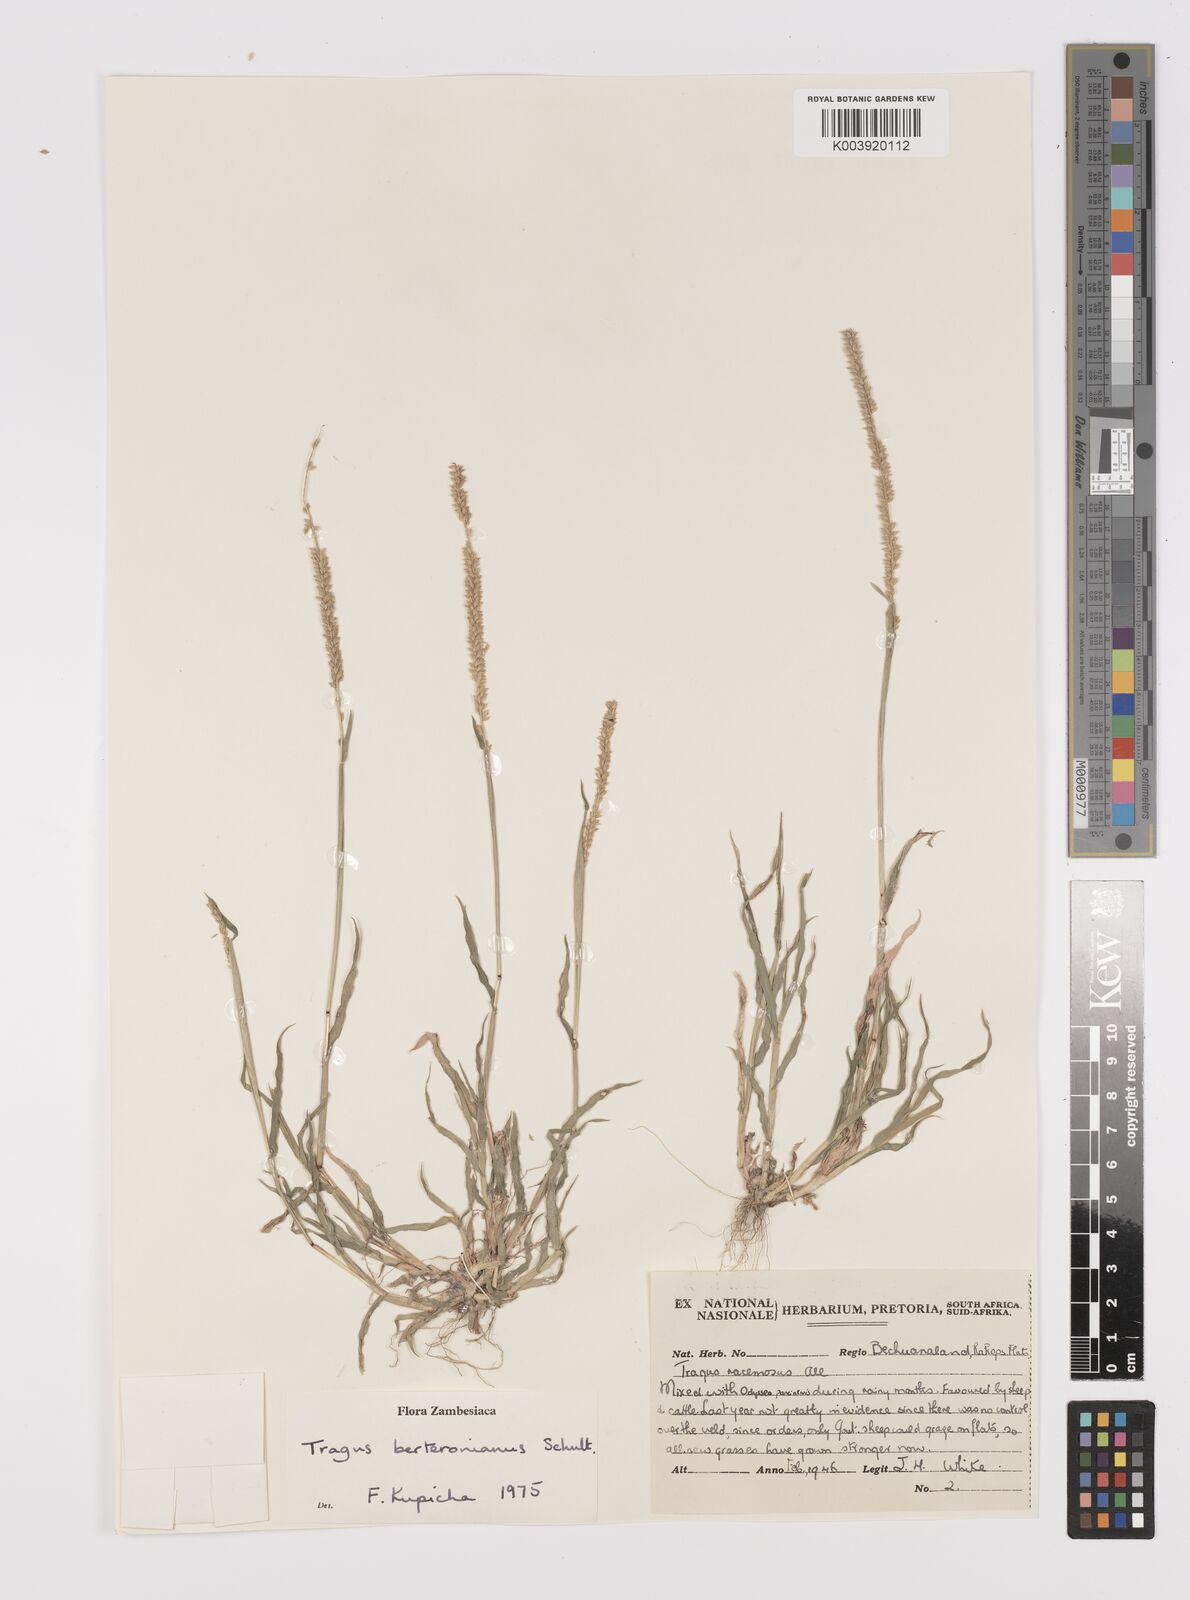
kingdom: Plantae
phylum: Tracheophyta
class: Liliopsida
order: Poales
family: Poaceae
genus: Tragus
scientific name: Tragus berteronianus
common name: African bur-grass
